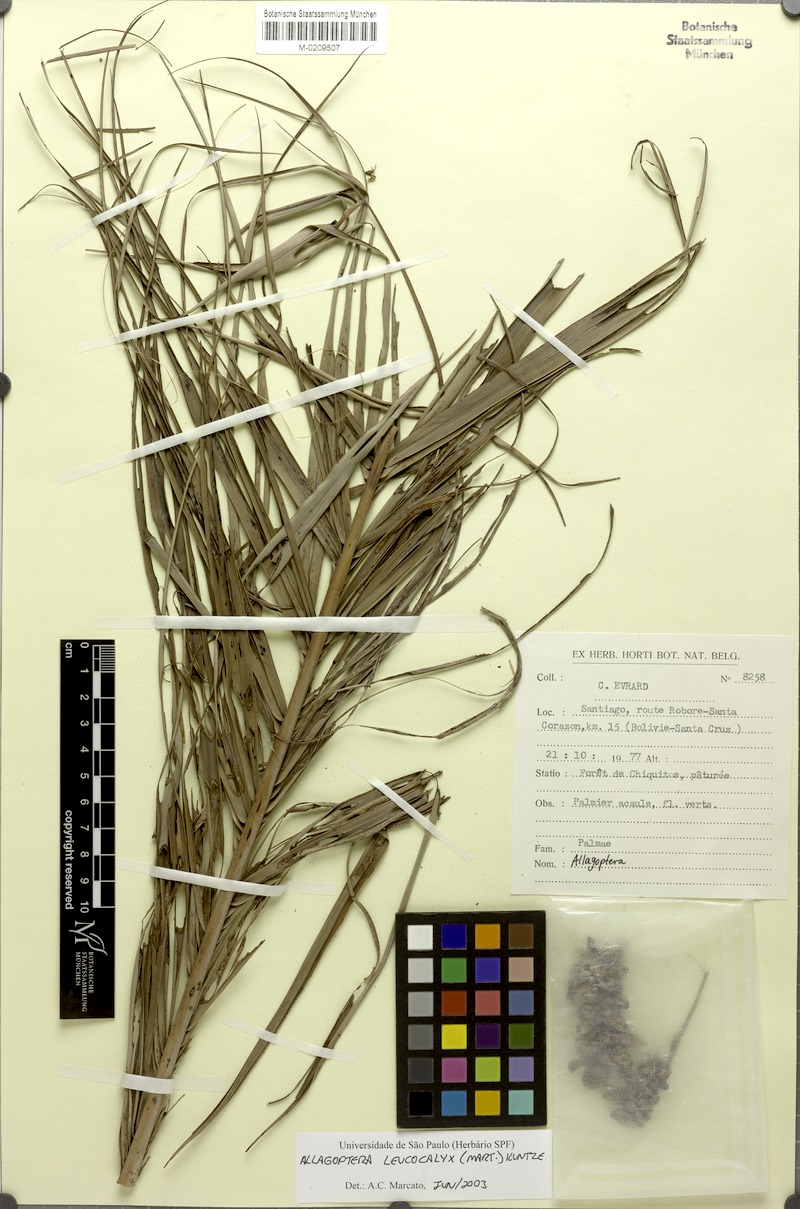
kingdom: Plantae
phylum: Tracheophyta
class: Liliopsida
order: Arecales
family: Arecaceae
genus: Allagoptera
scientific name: Allagoptera leucocalyx
